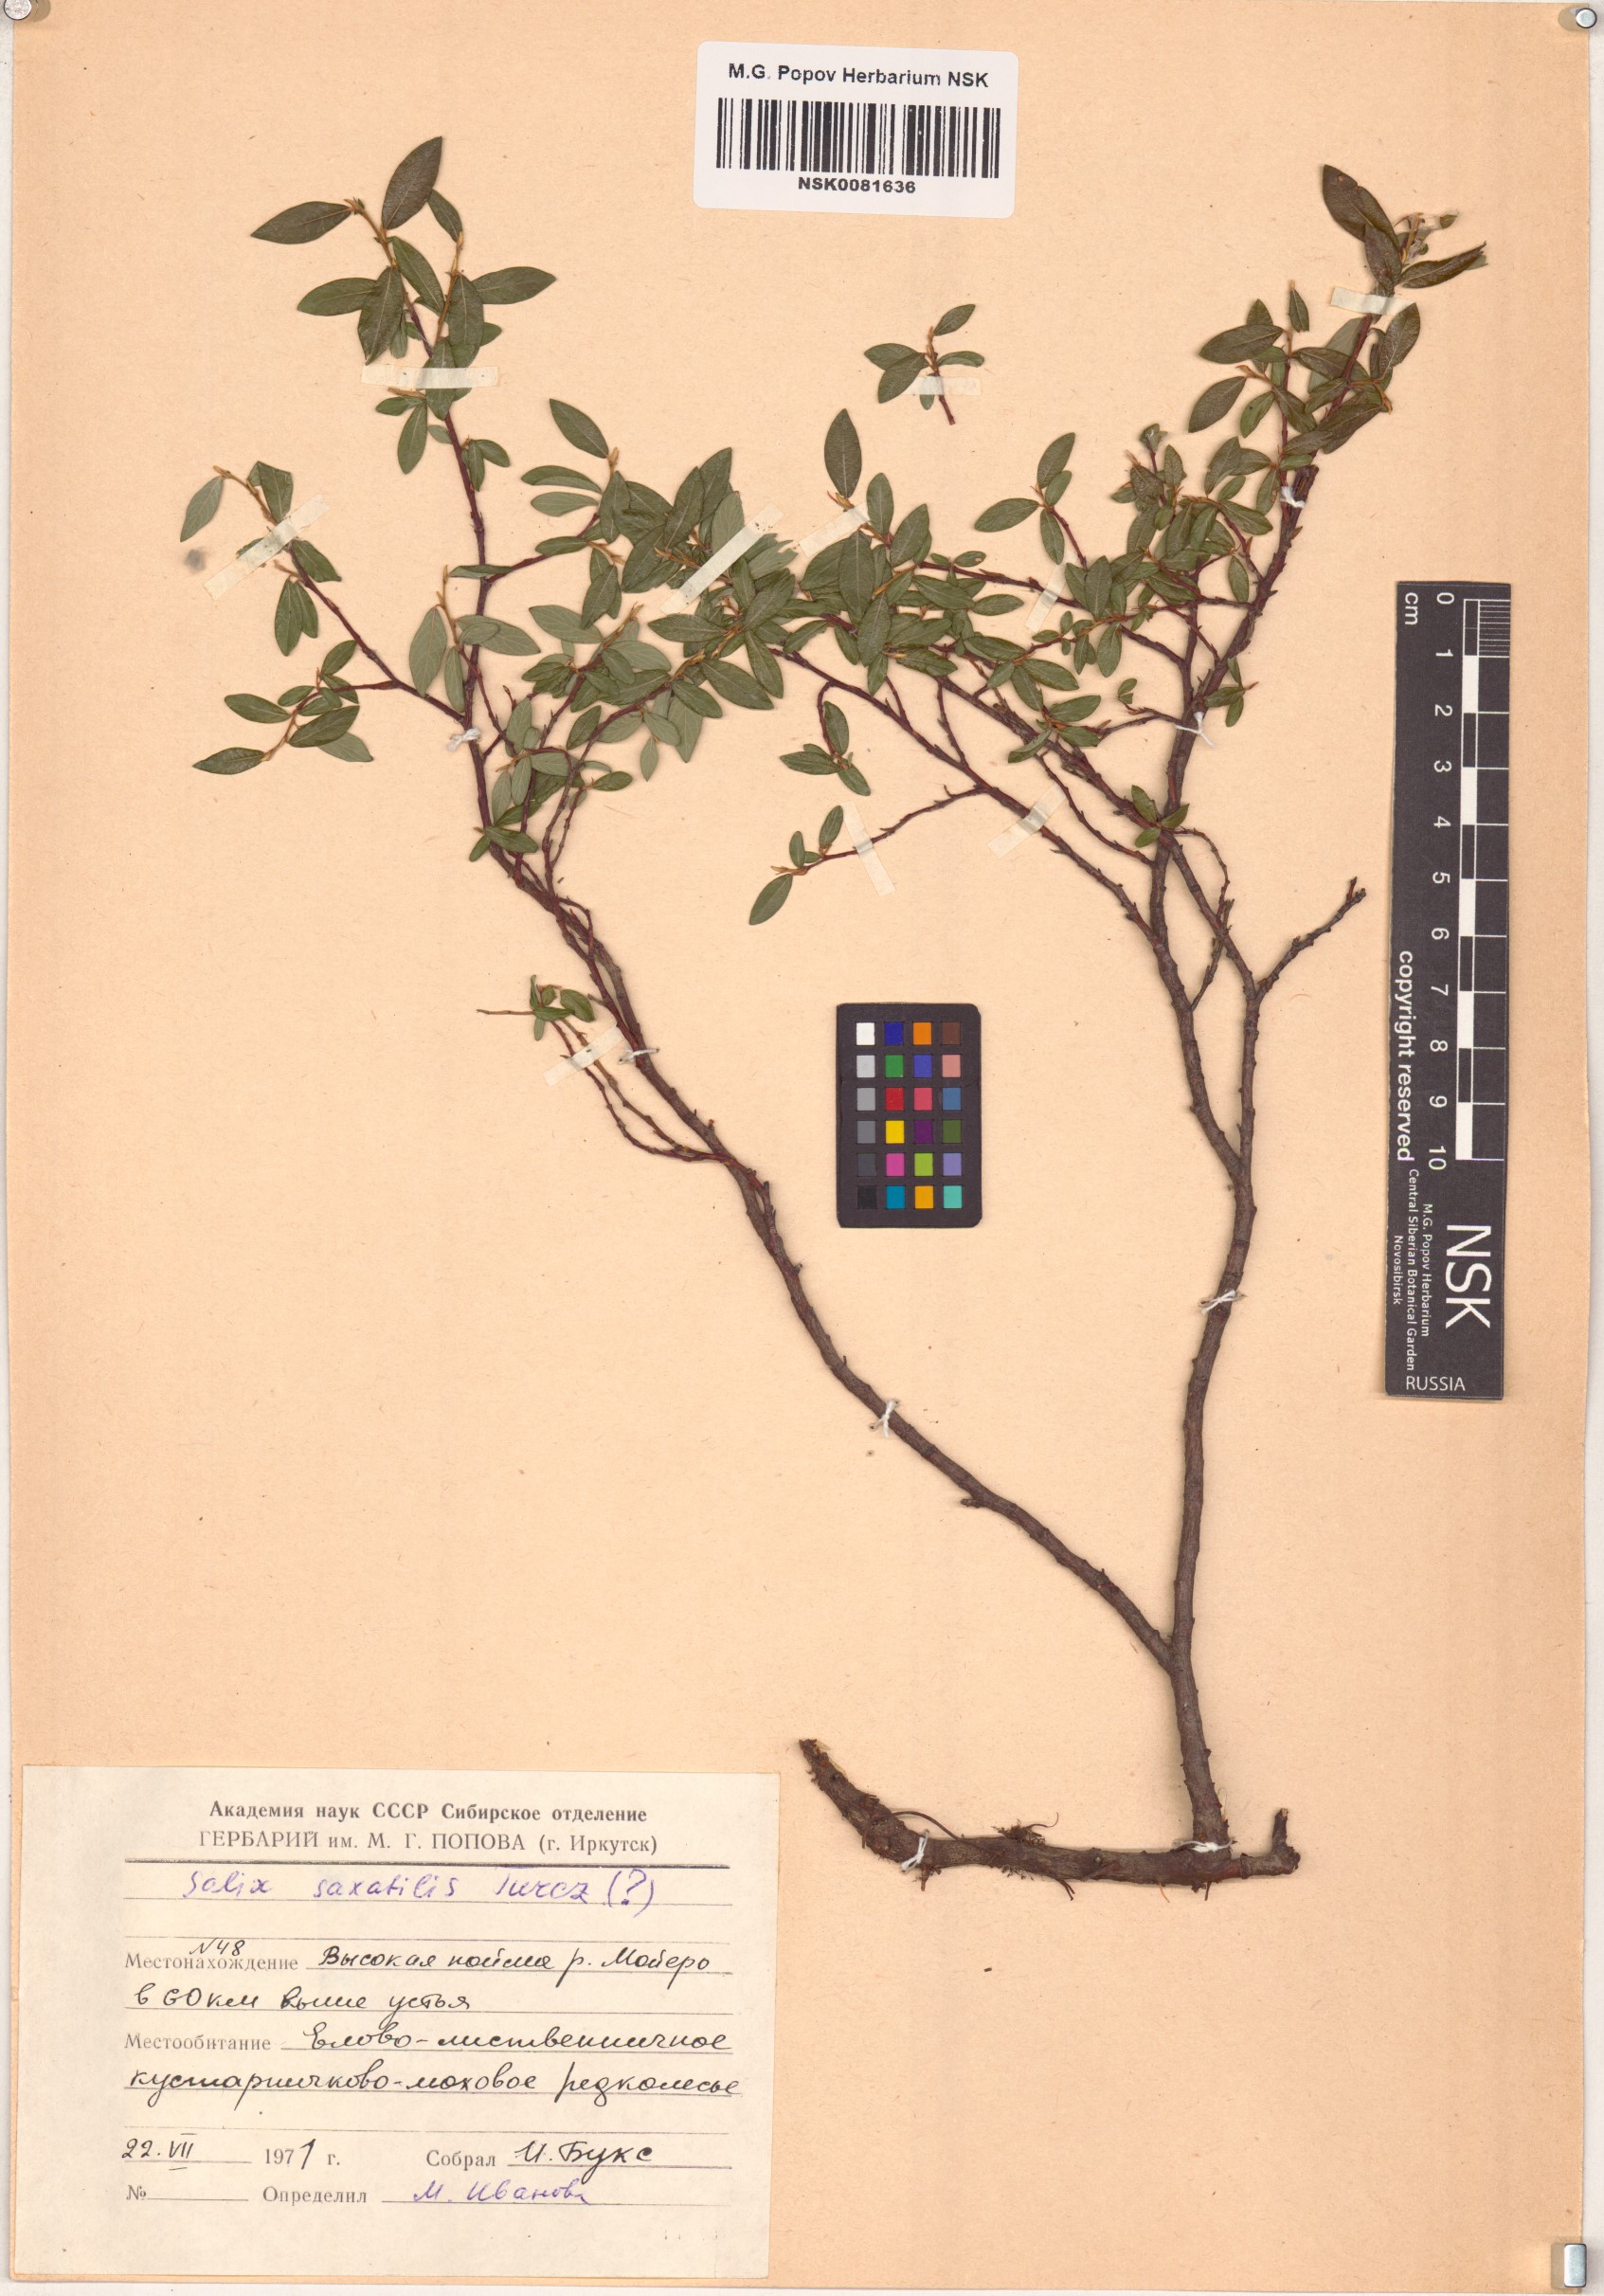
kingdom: Plantae
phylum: Tracheophyta
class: Magnoliopsida
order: Malpighiales
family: Salicaceae
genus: Salix
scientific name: Salix saxatilis
